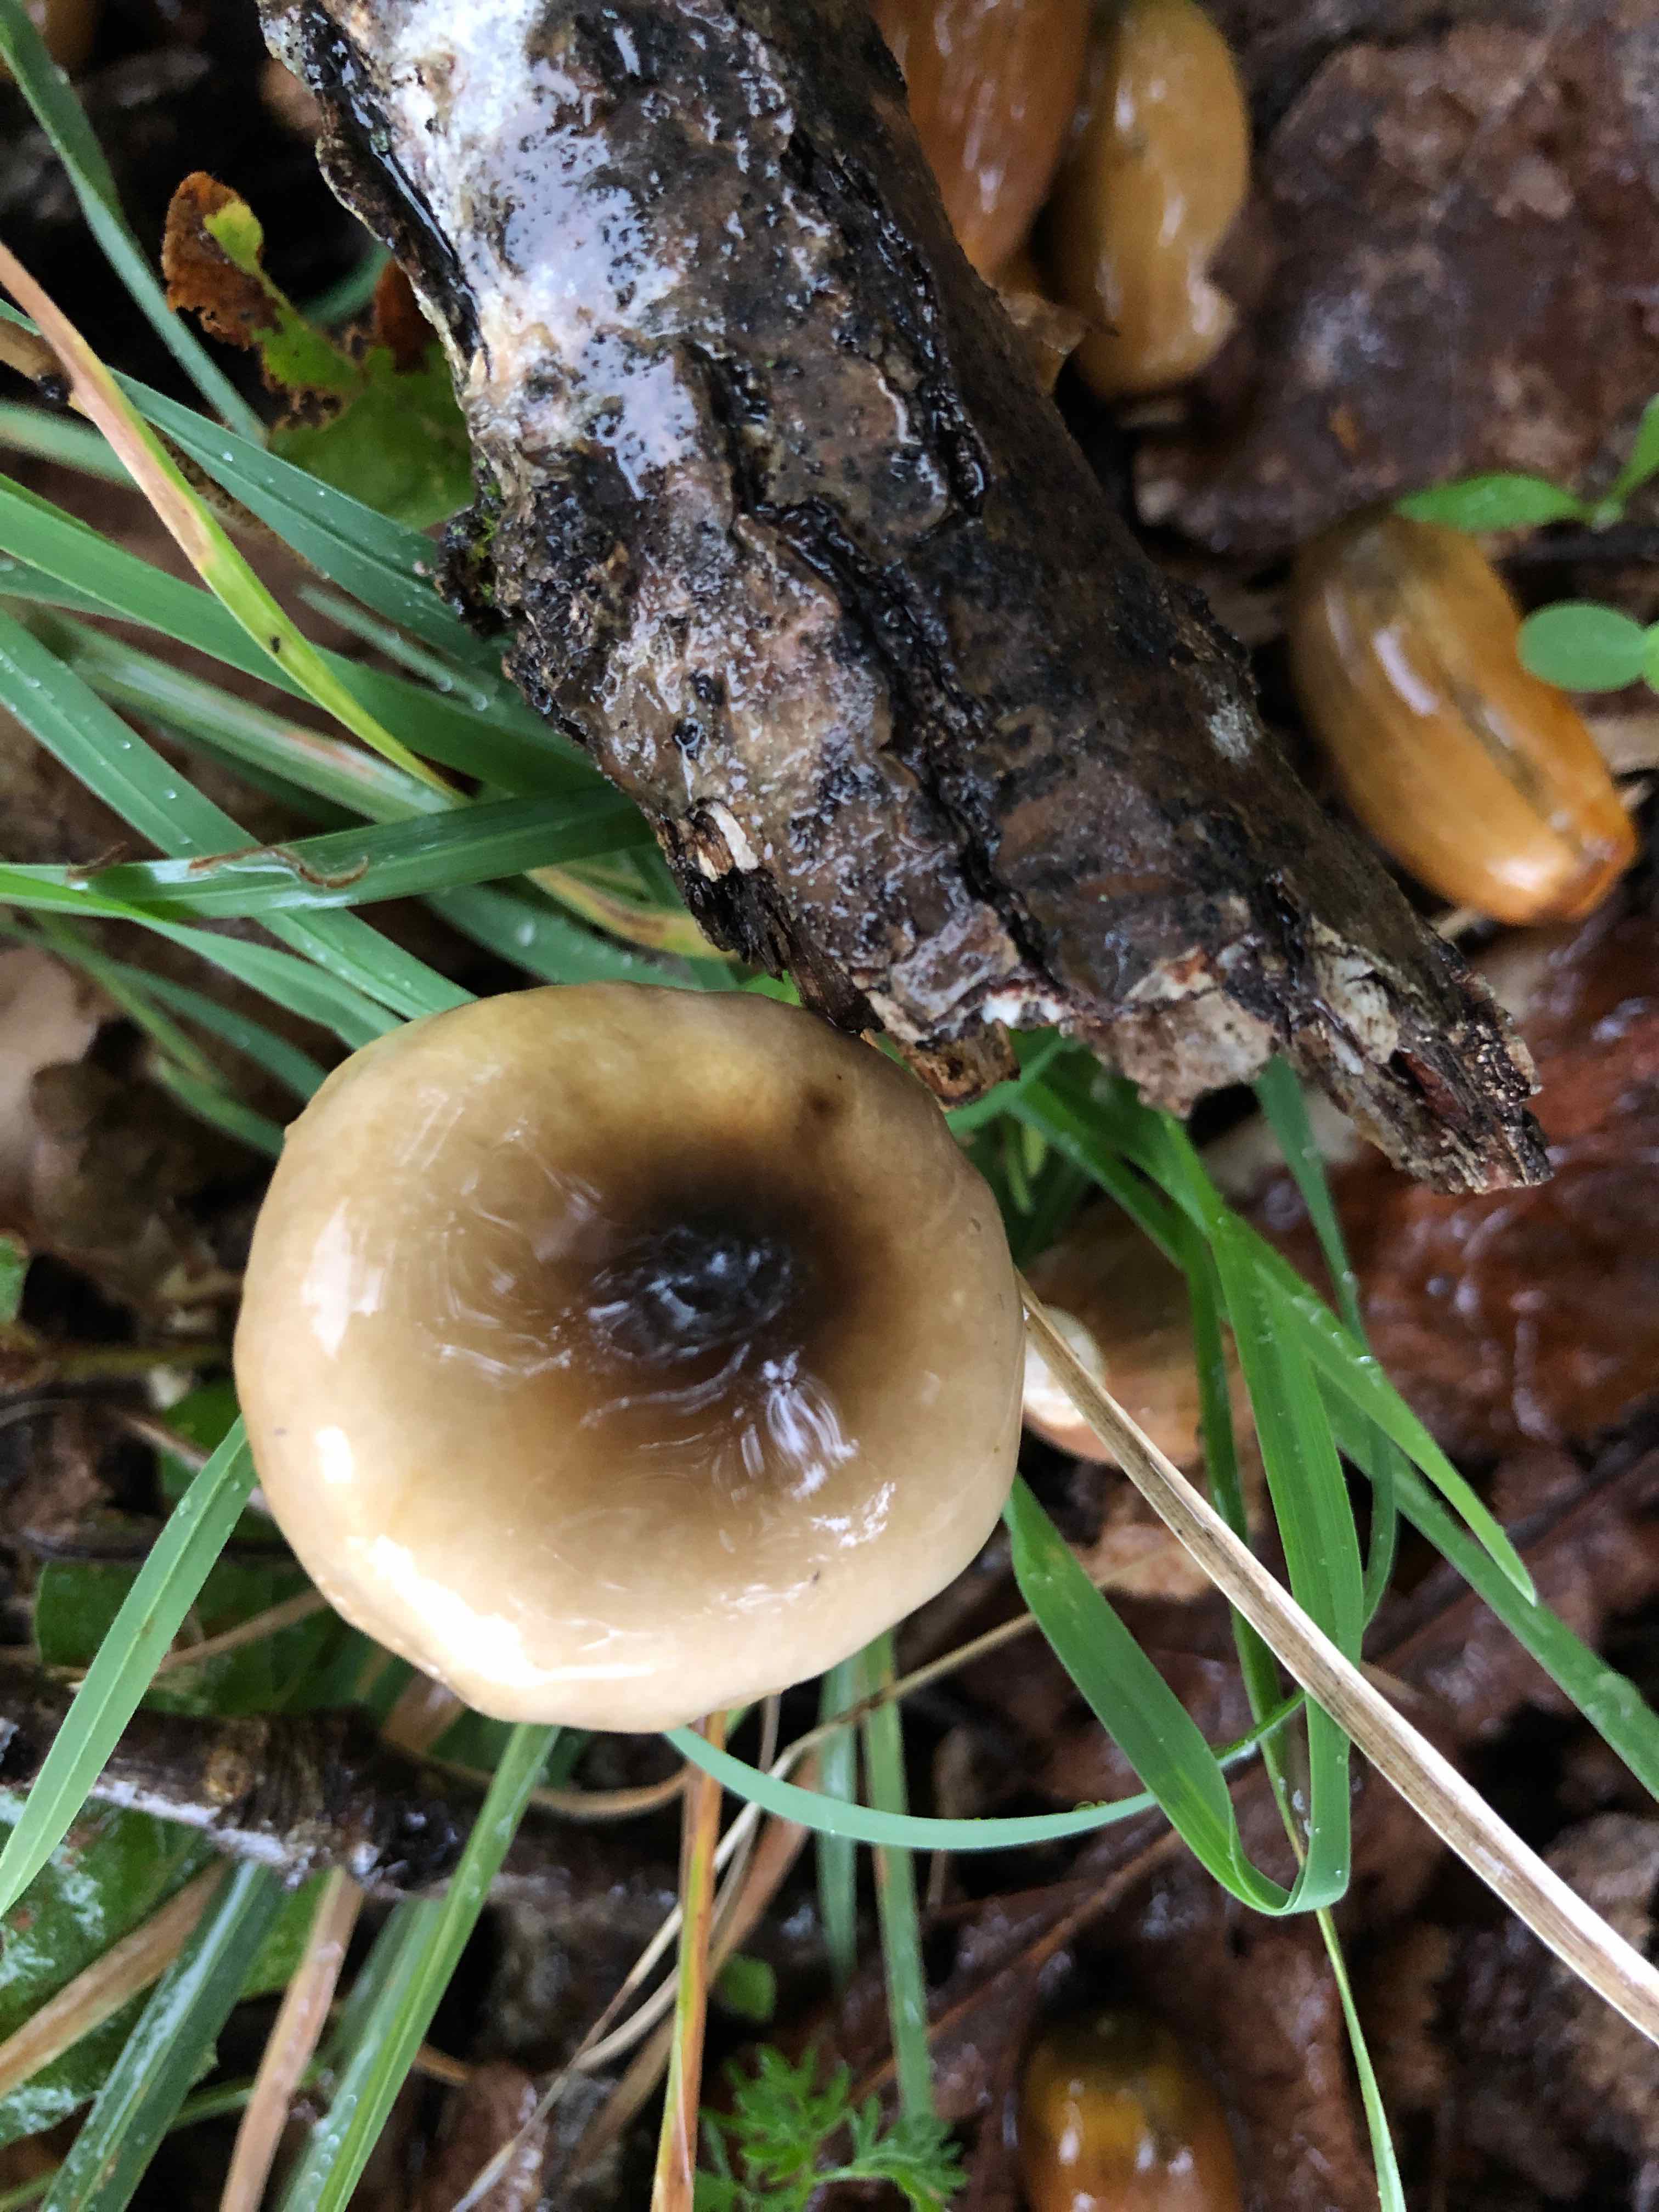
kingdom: Fungi
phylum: Basidiomycota
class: Agaricomycetes
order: Agaricales
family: Hygrophoraceae
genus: Hygrophorus
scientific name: Hygrophorus glutinifer
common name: tvefarvet sneglehat
